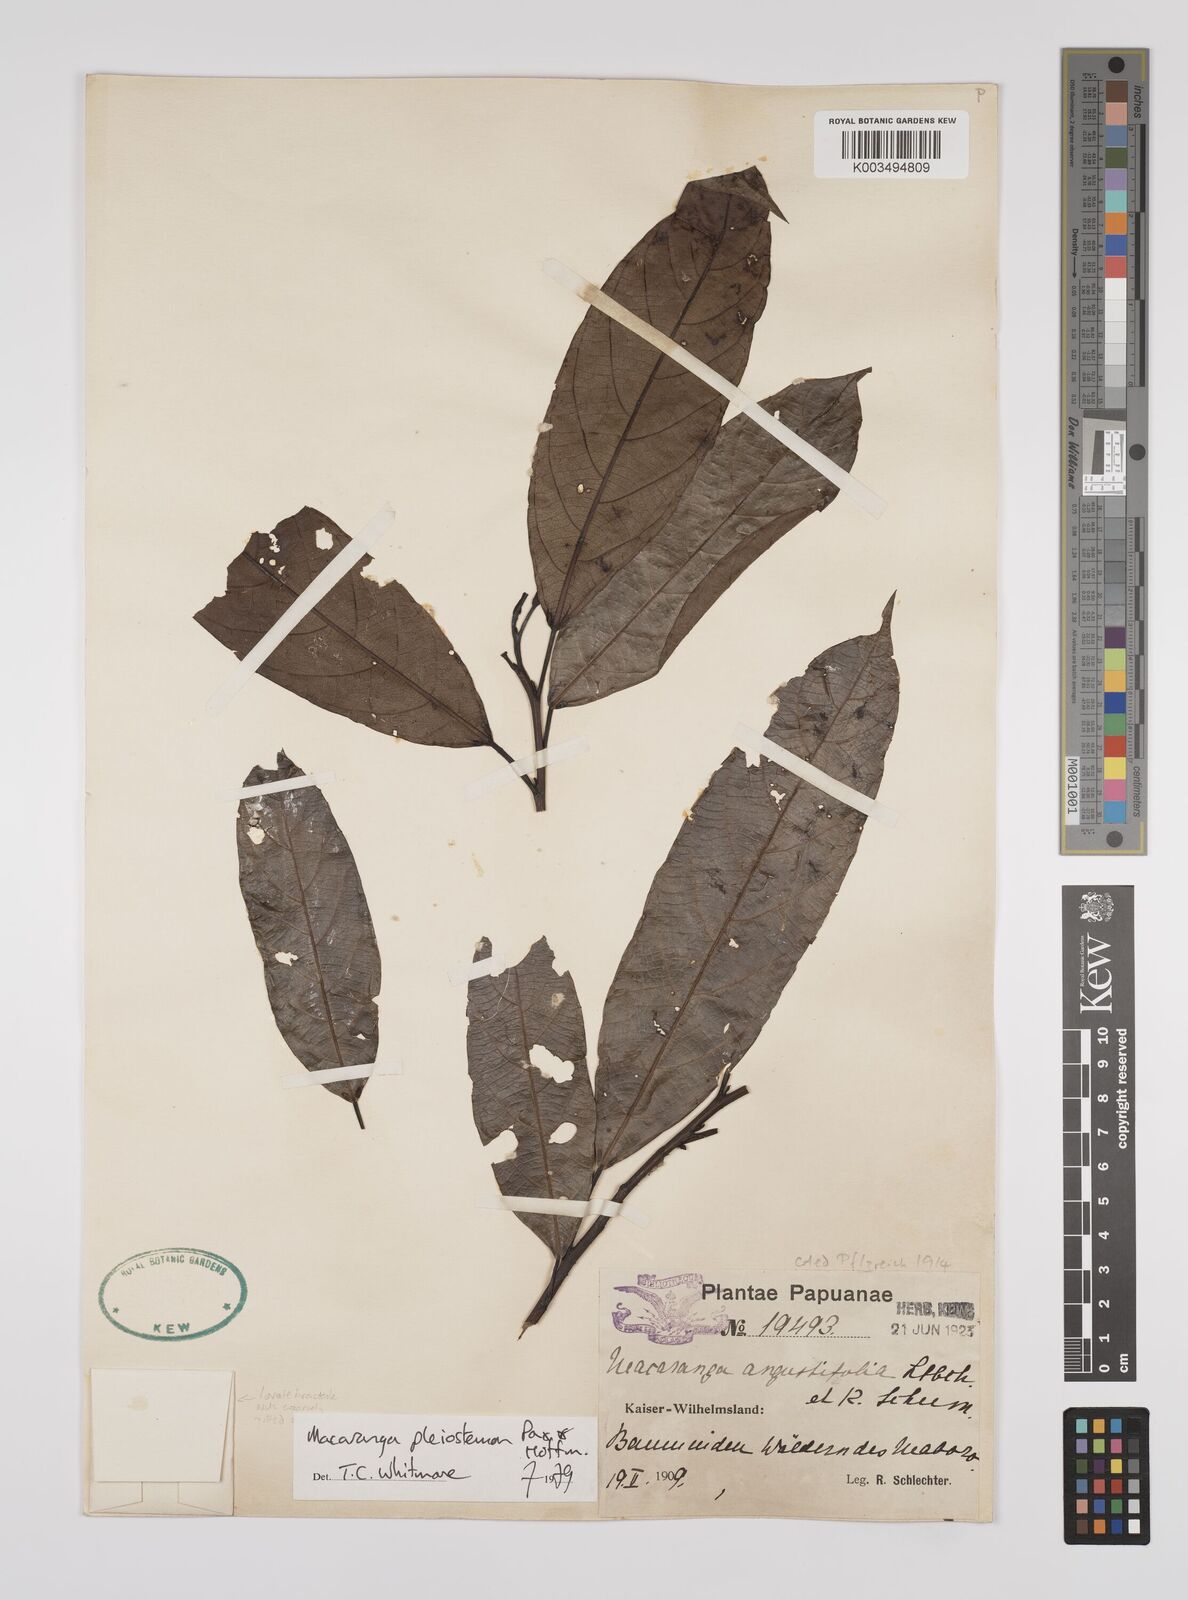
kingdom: Plantae
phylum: Tracheophyta
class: Magnoliopsida
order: Malpighiales
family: Euphorbiaceae
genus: Macaranga
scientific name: Macaranga pleiostemon
